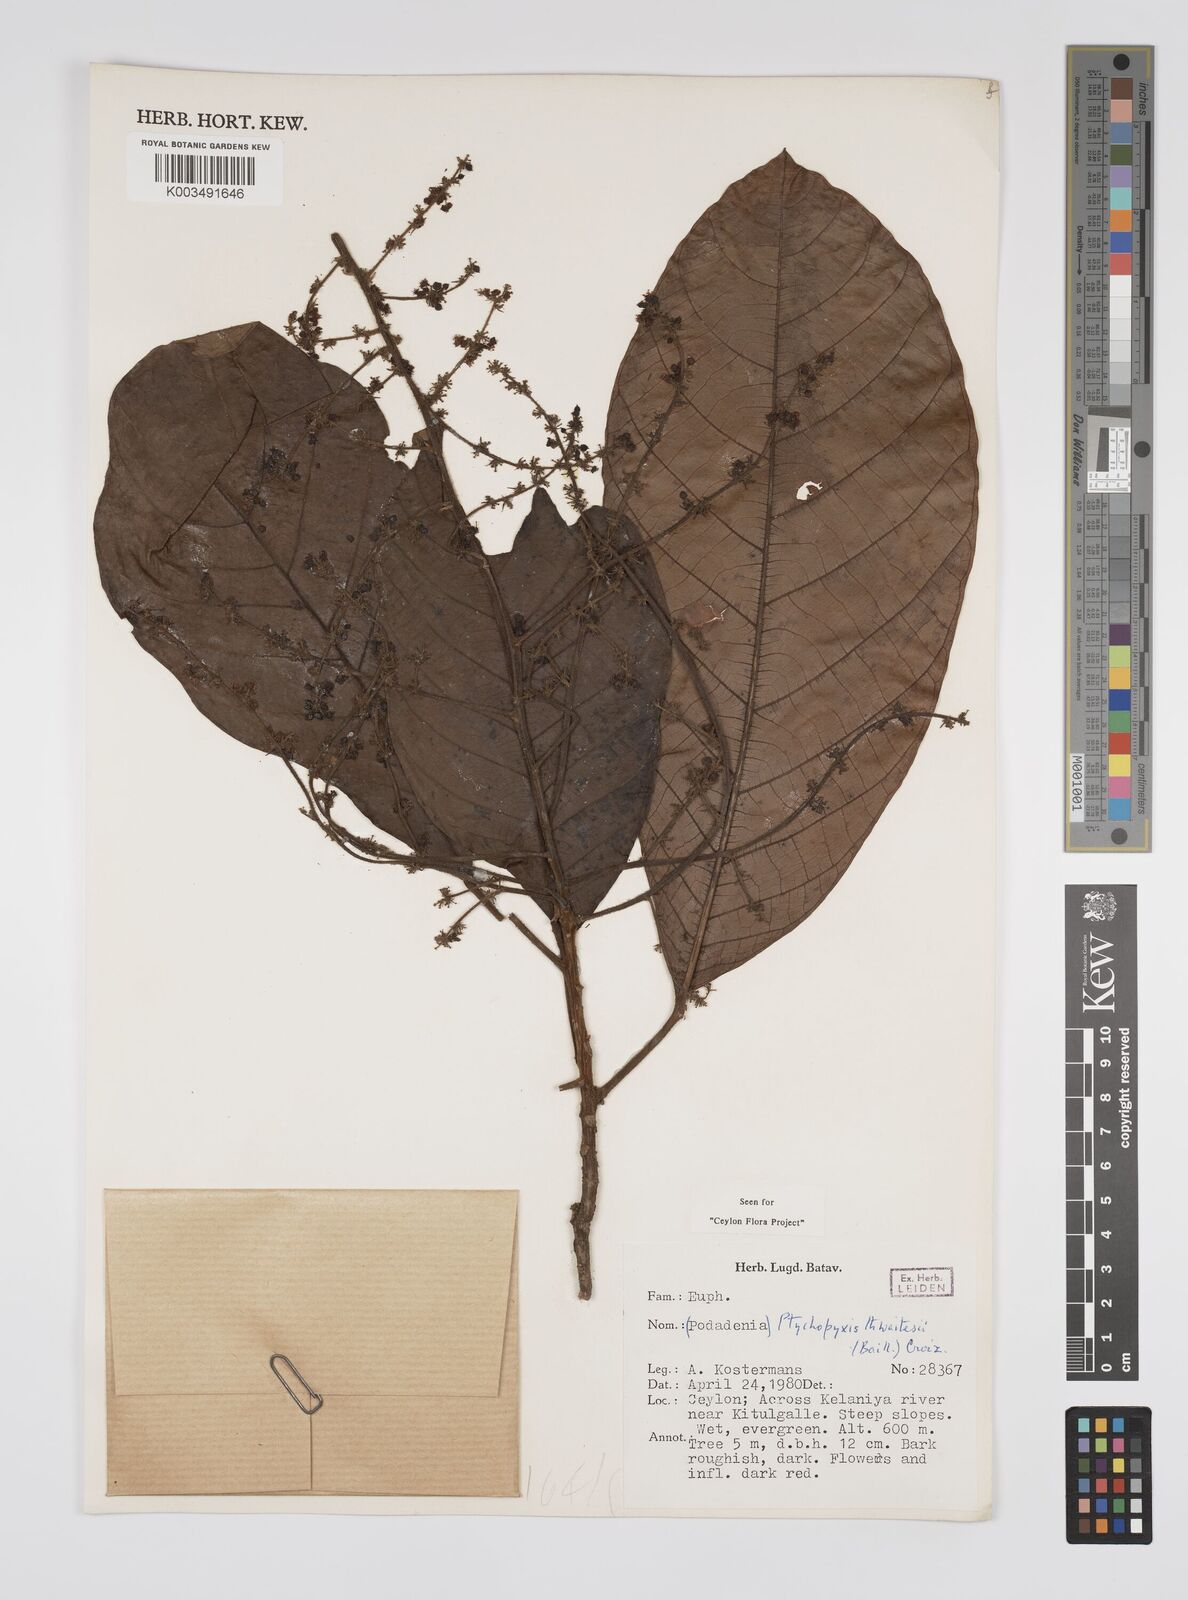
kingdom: Plantae
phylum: Tracheophyta
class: Magnoliopsida
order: Malpighiales
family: Euphorbiaceae
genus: Podadenia
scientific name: Podadenia sapida
